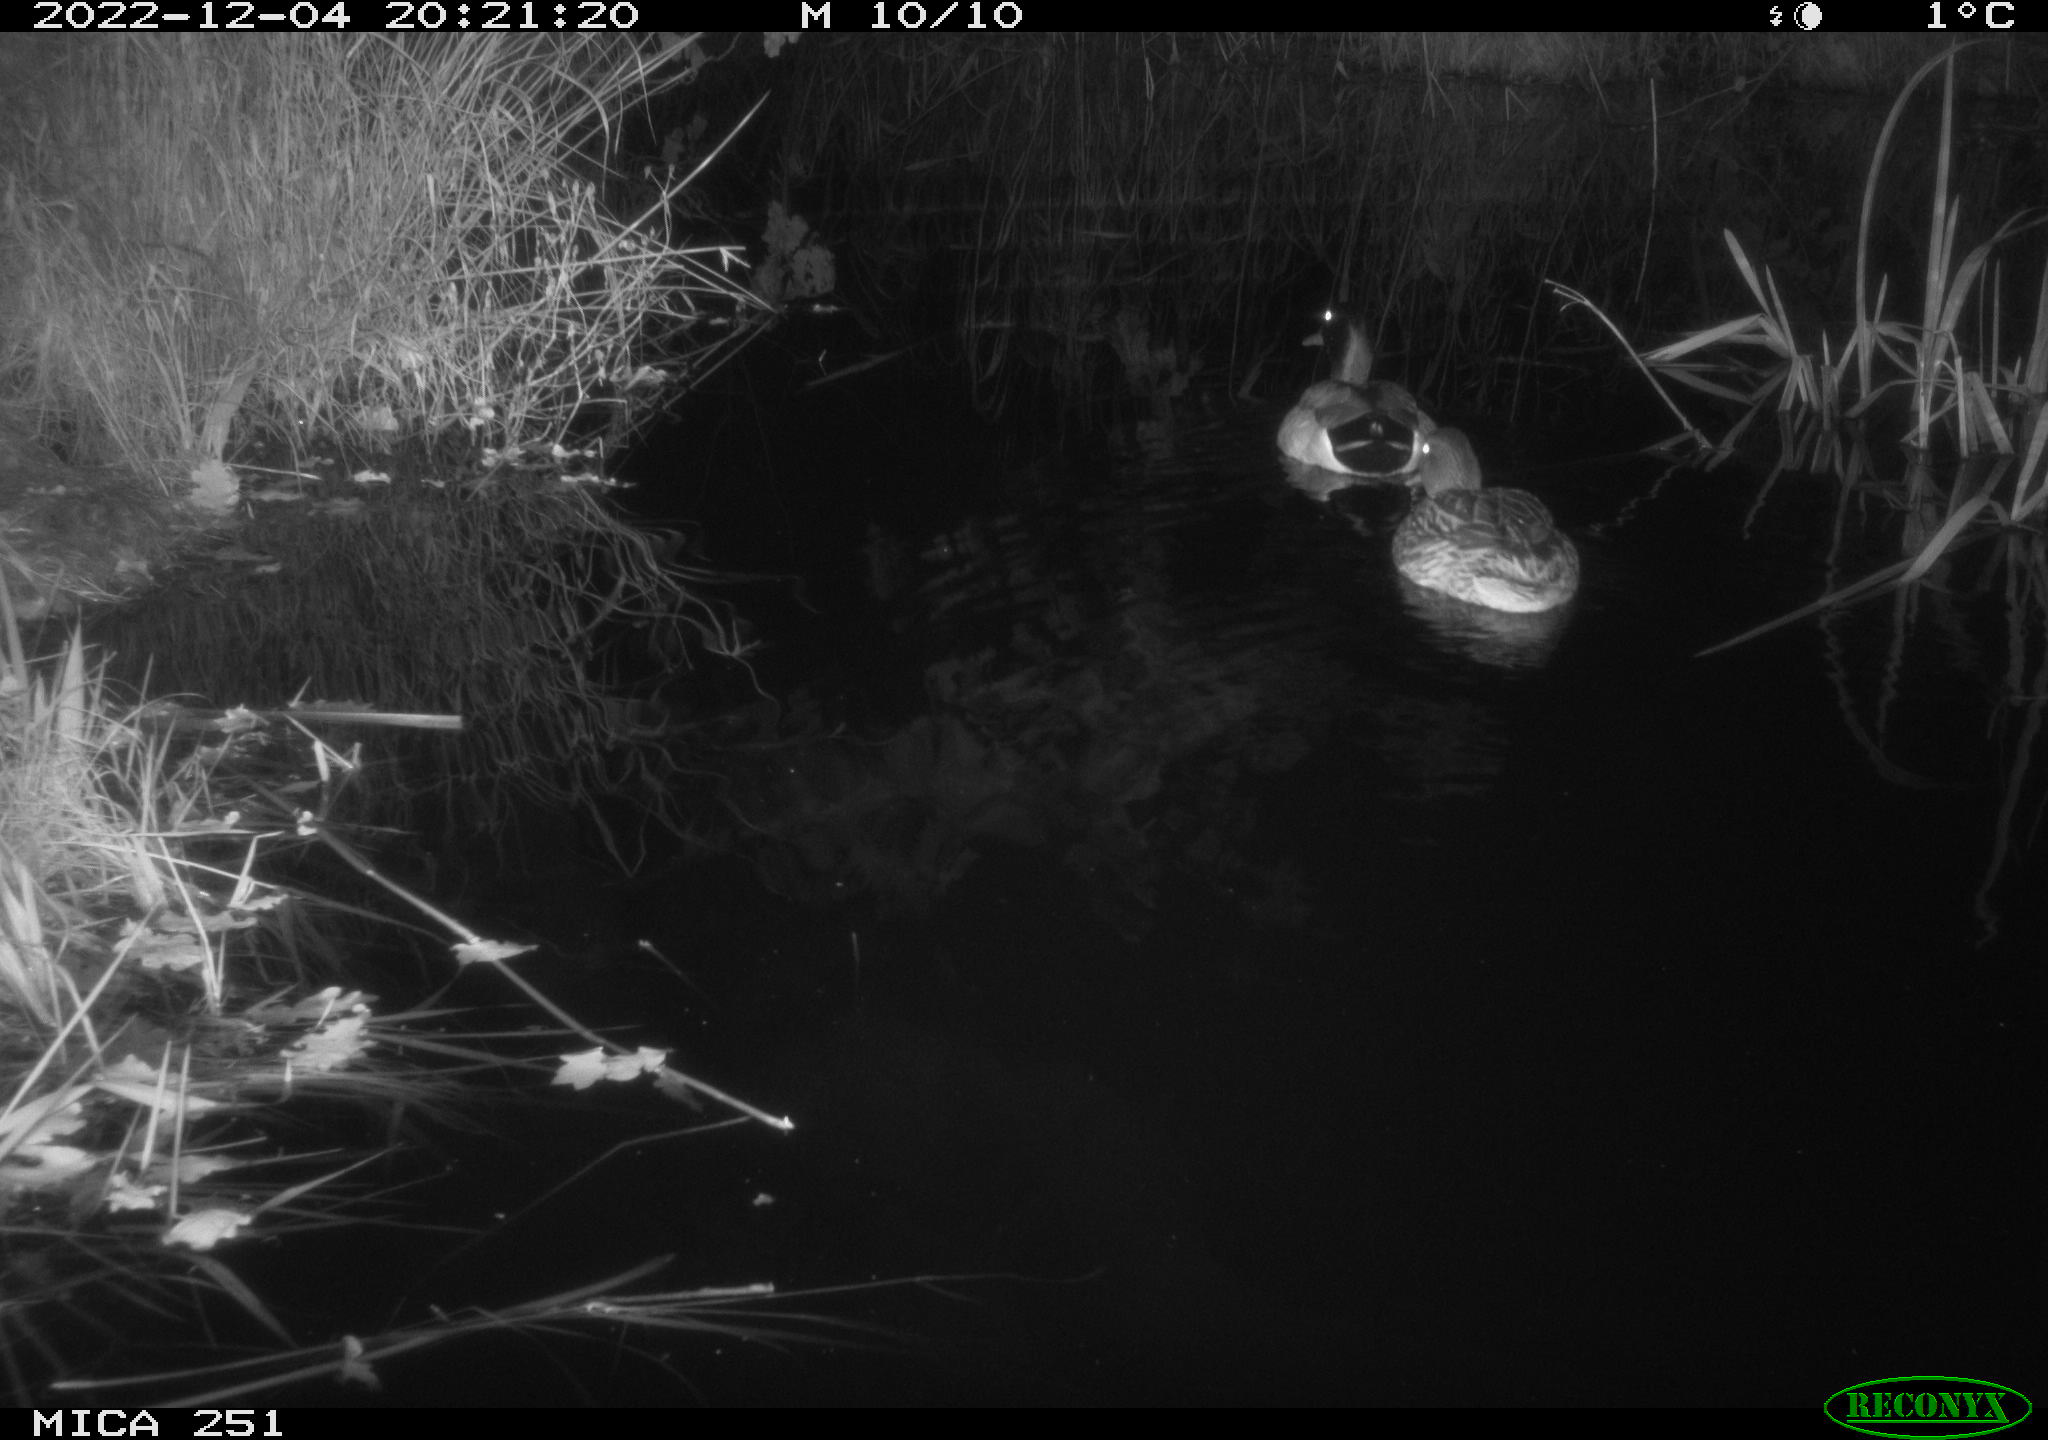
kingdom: Animalia
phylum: Chordata
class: Aves
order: Anseriformes
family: Anatidae
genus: Anas
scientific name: Anas
